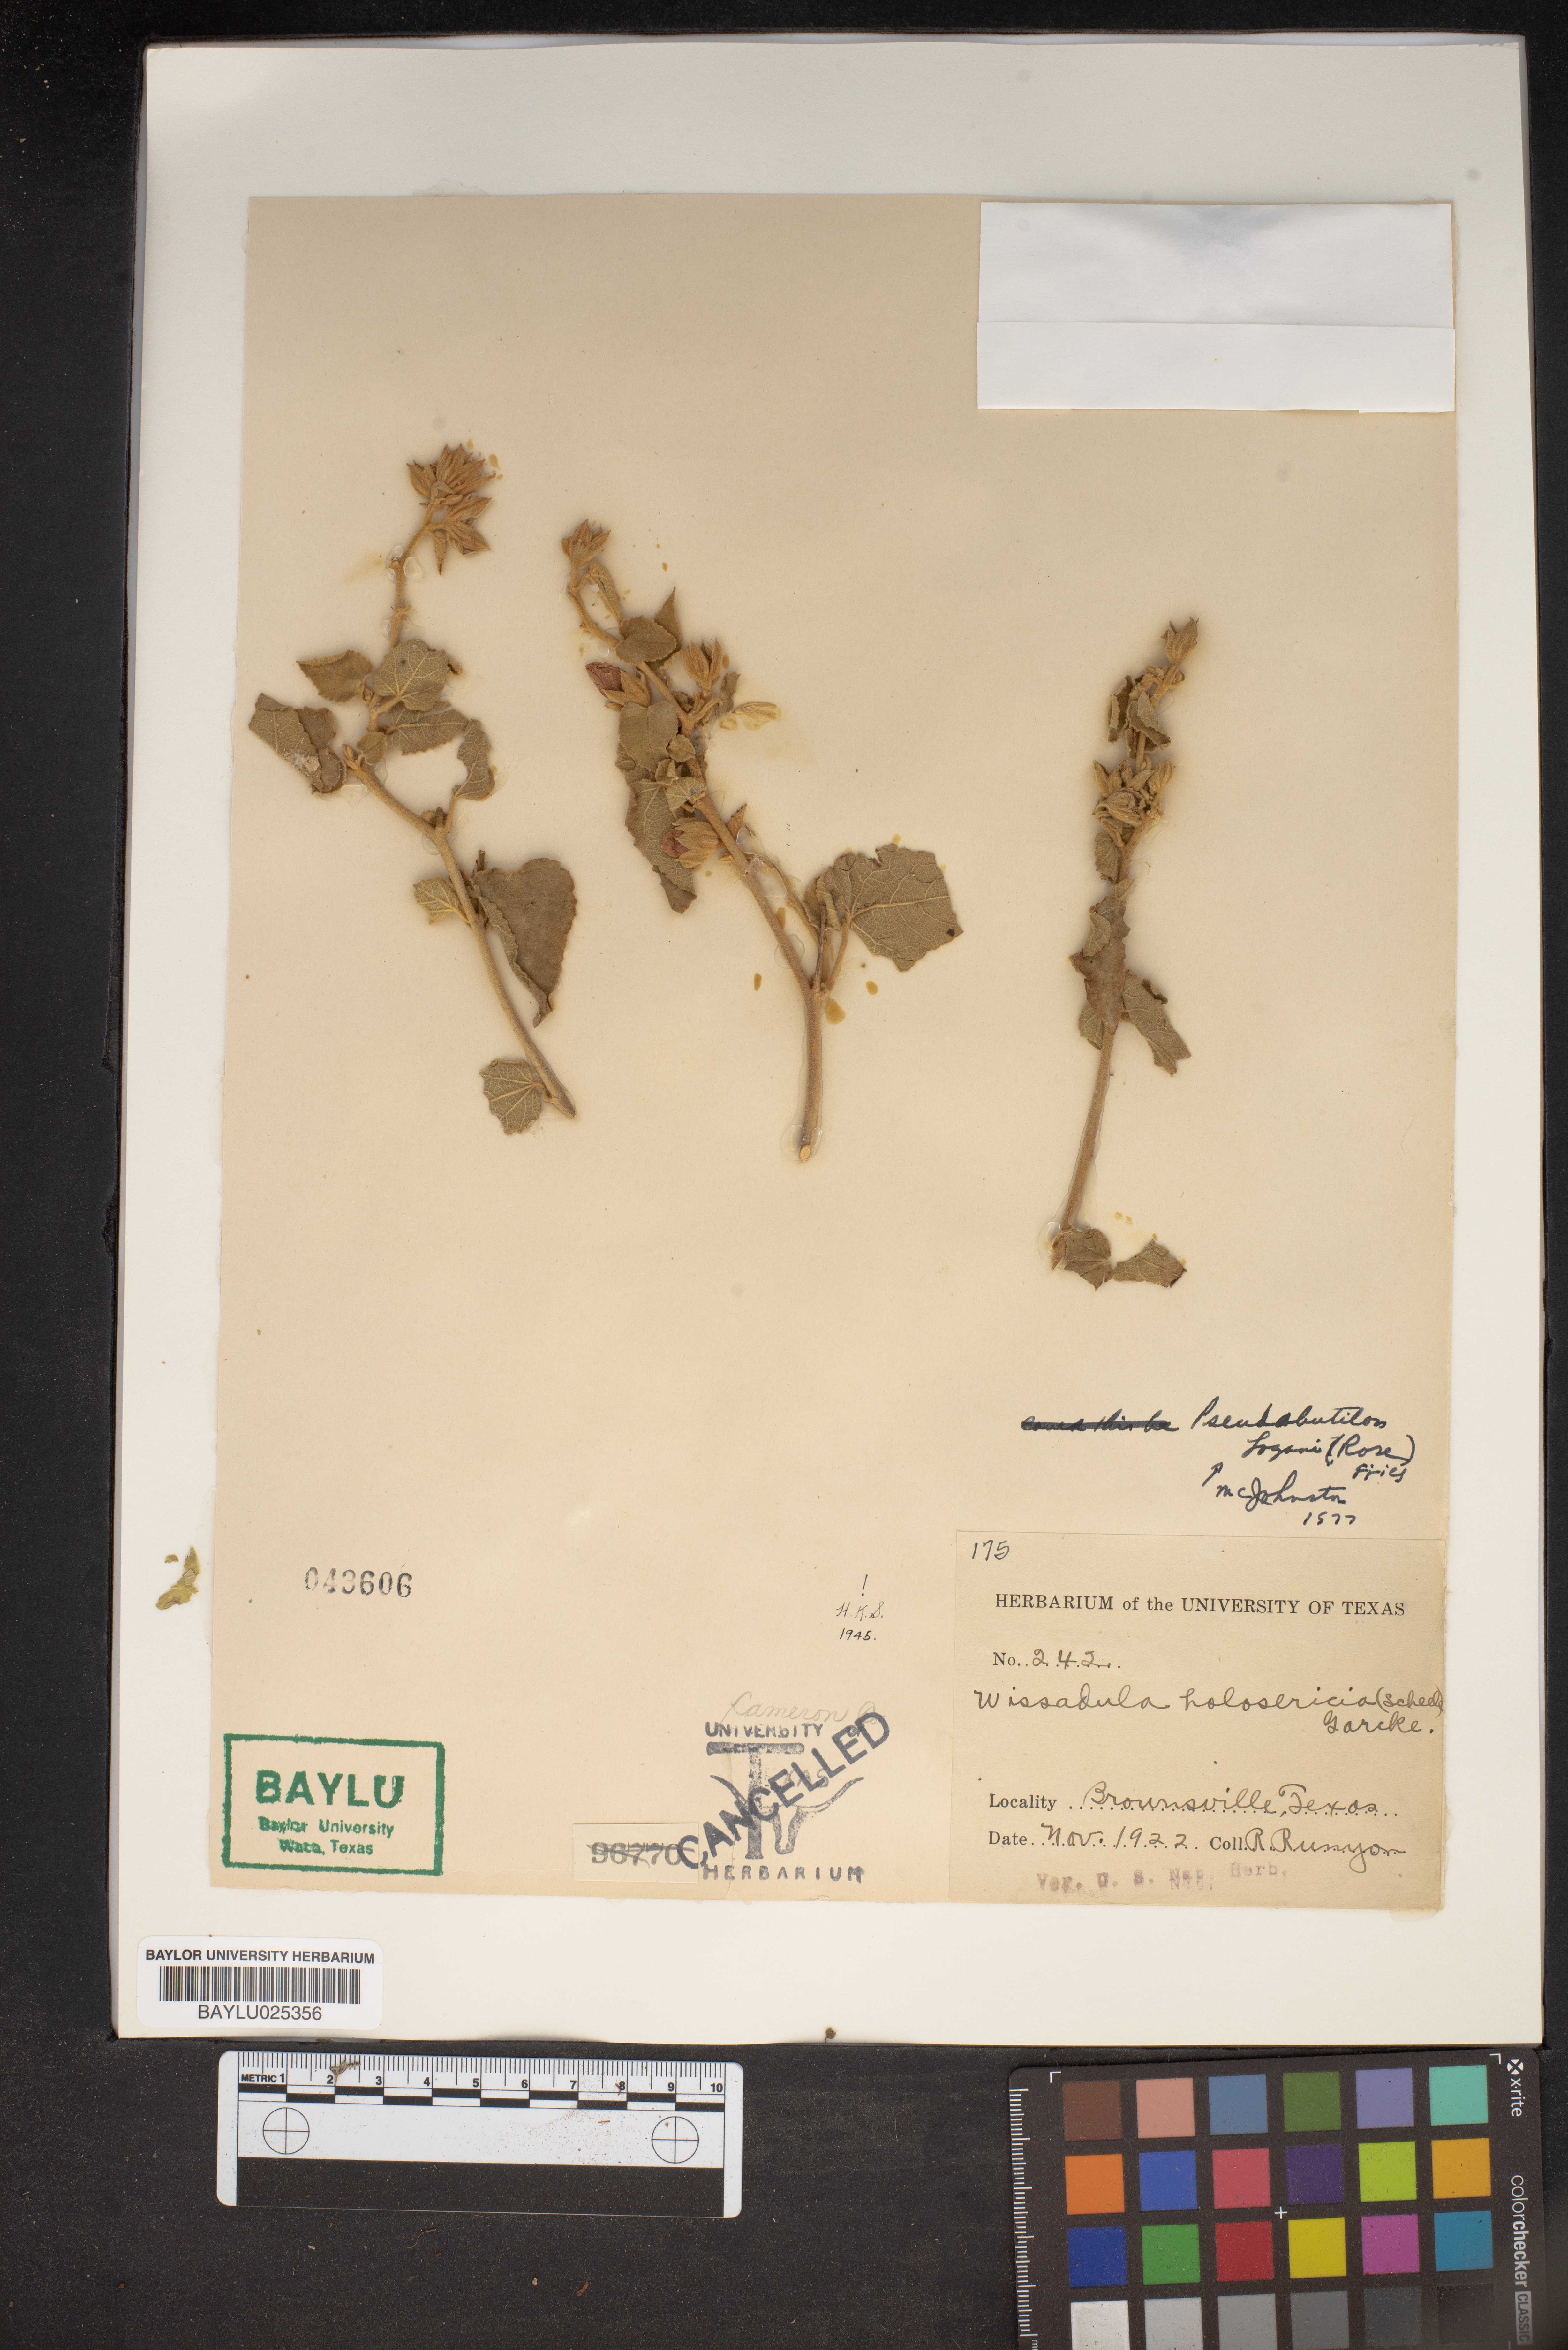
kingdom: Plantae
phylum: Tracheophyta
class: Magnoliopsida
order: Malvales
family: Malvaceae
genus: Allowissadula
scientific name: Allowissadula holosericea
